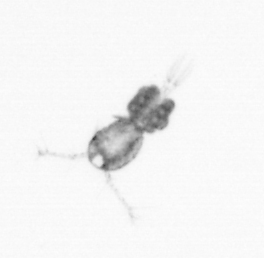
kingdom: Animalia
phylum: Arthropoda
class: Copepoda
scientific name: Copepoda
